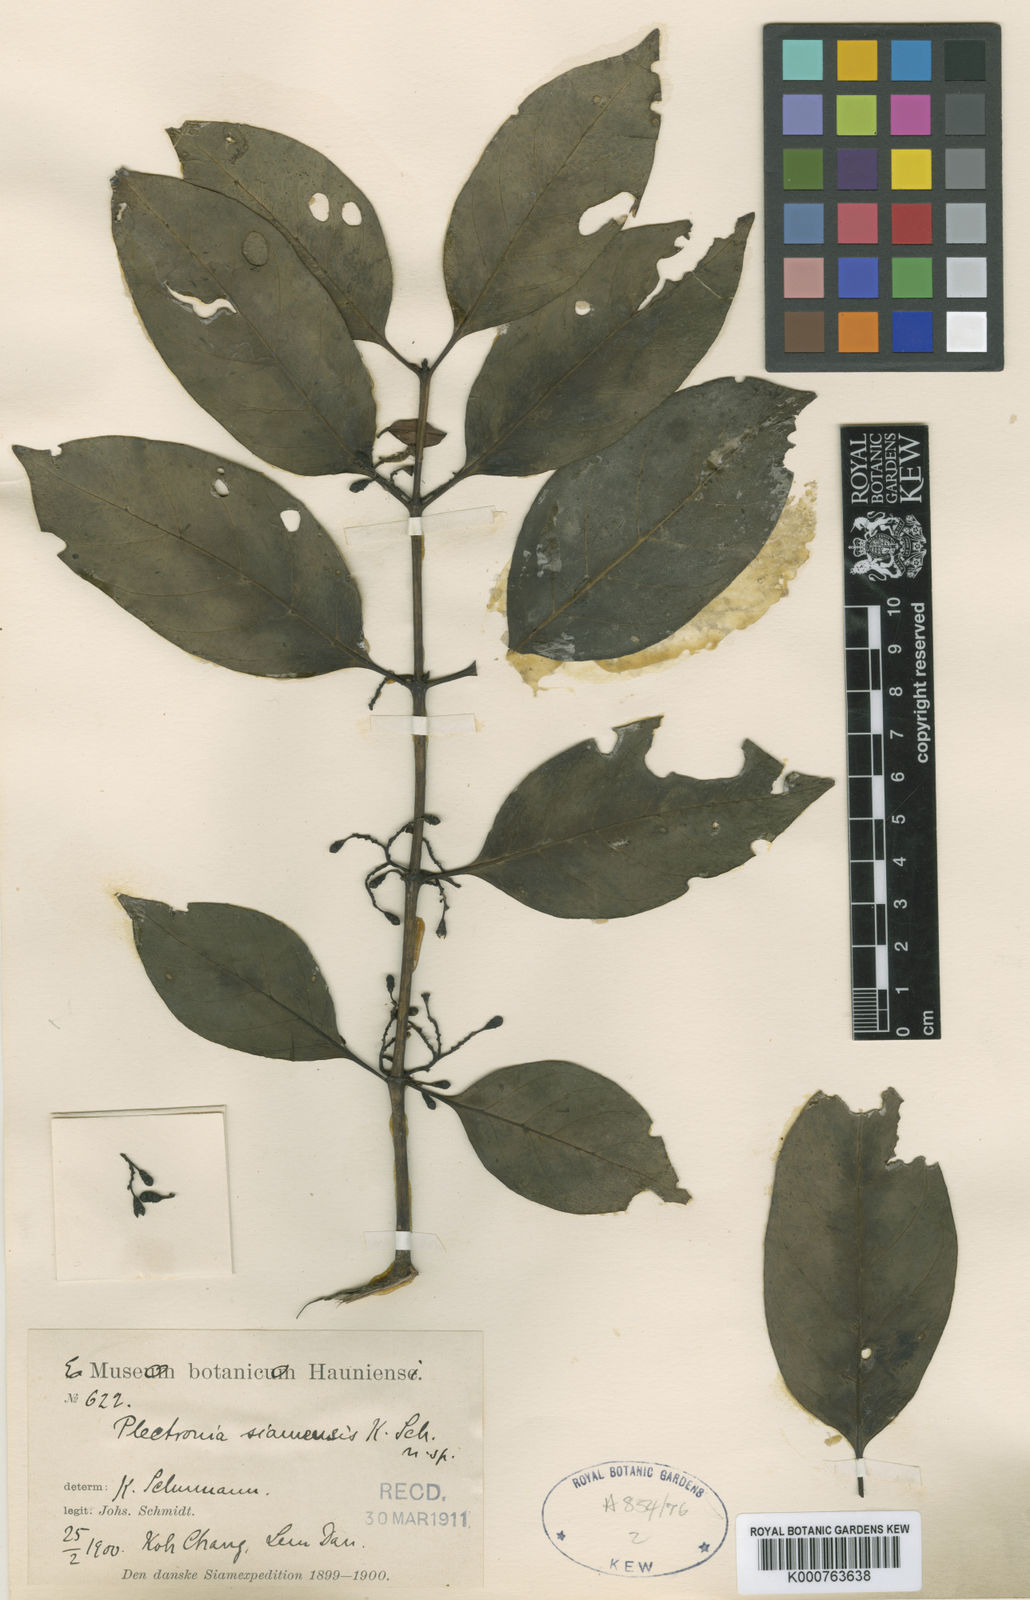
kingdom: Plantae
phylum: Tracheophyta
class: Magnoliopsida
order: Gentianales
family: Rubiaceae
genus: Canthiumera
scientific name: Canthiumera siamensis
